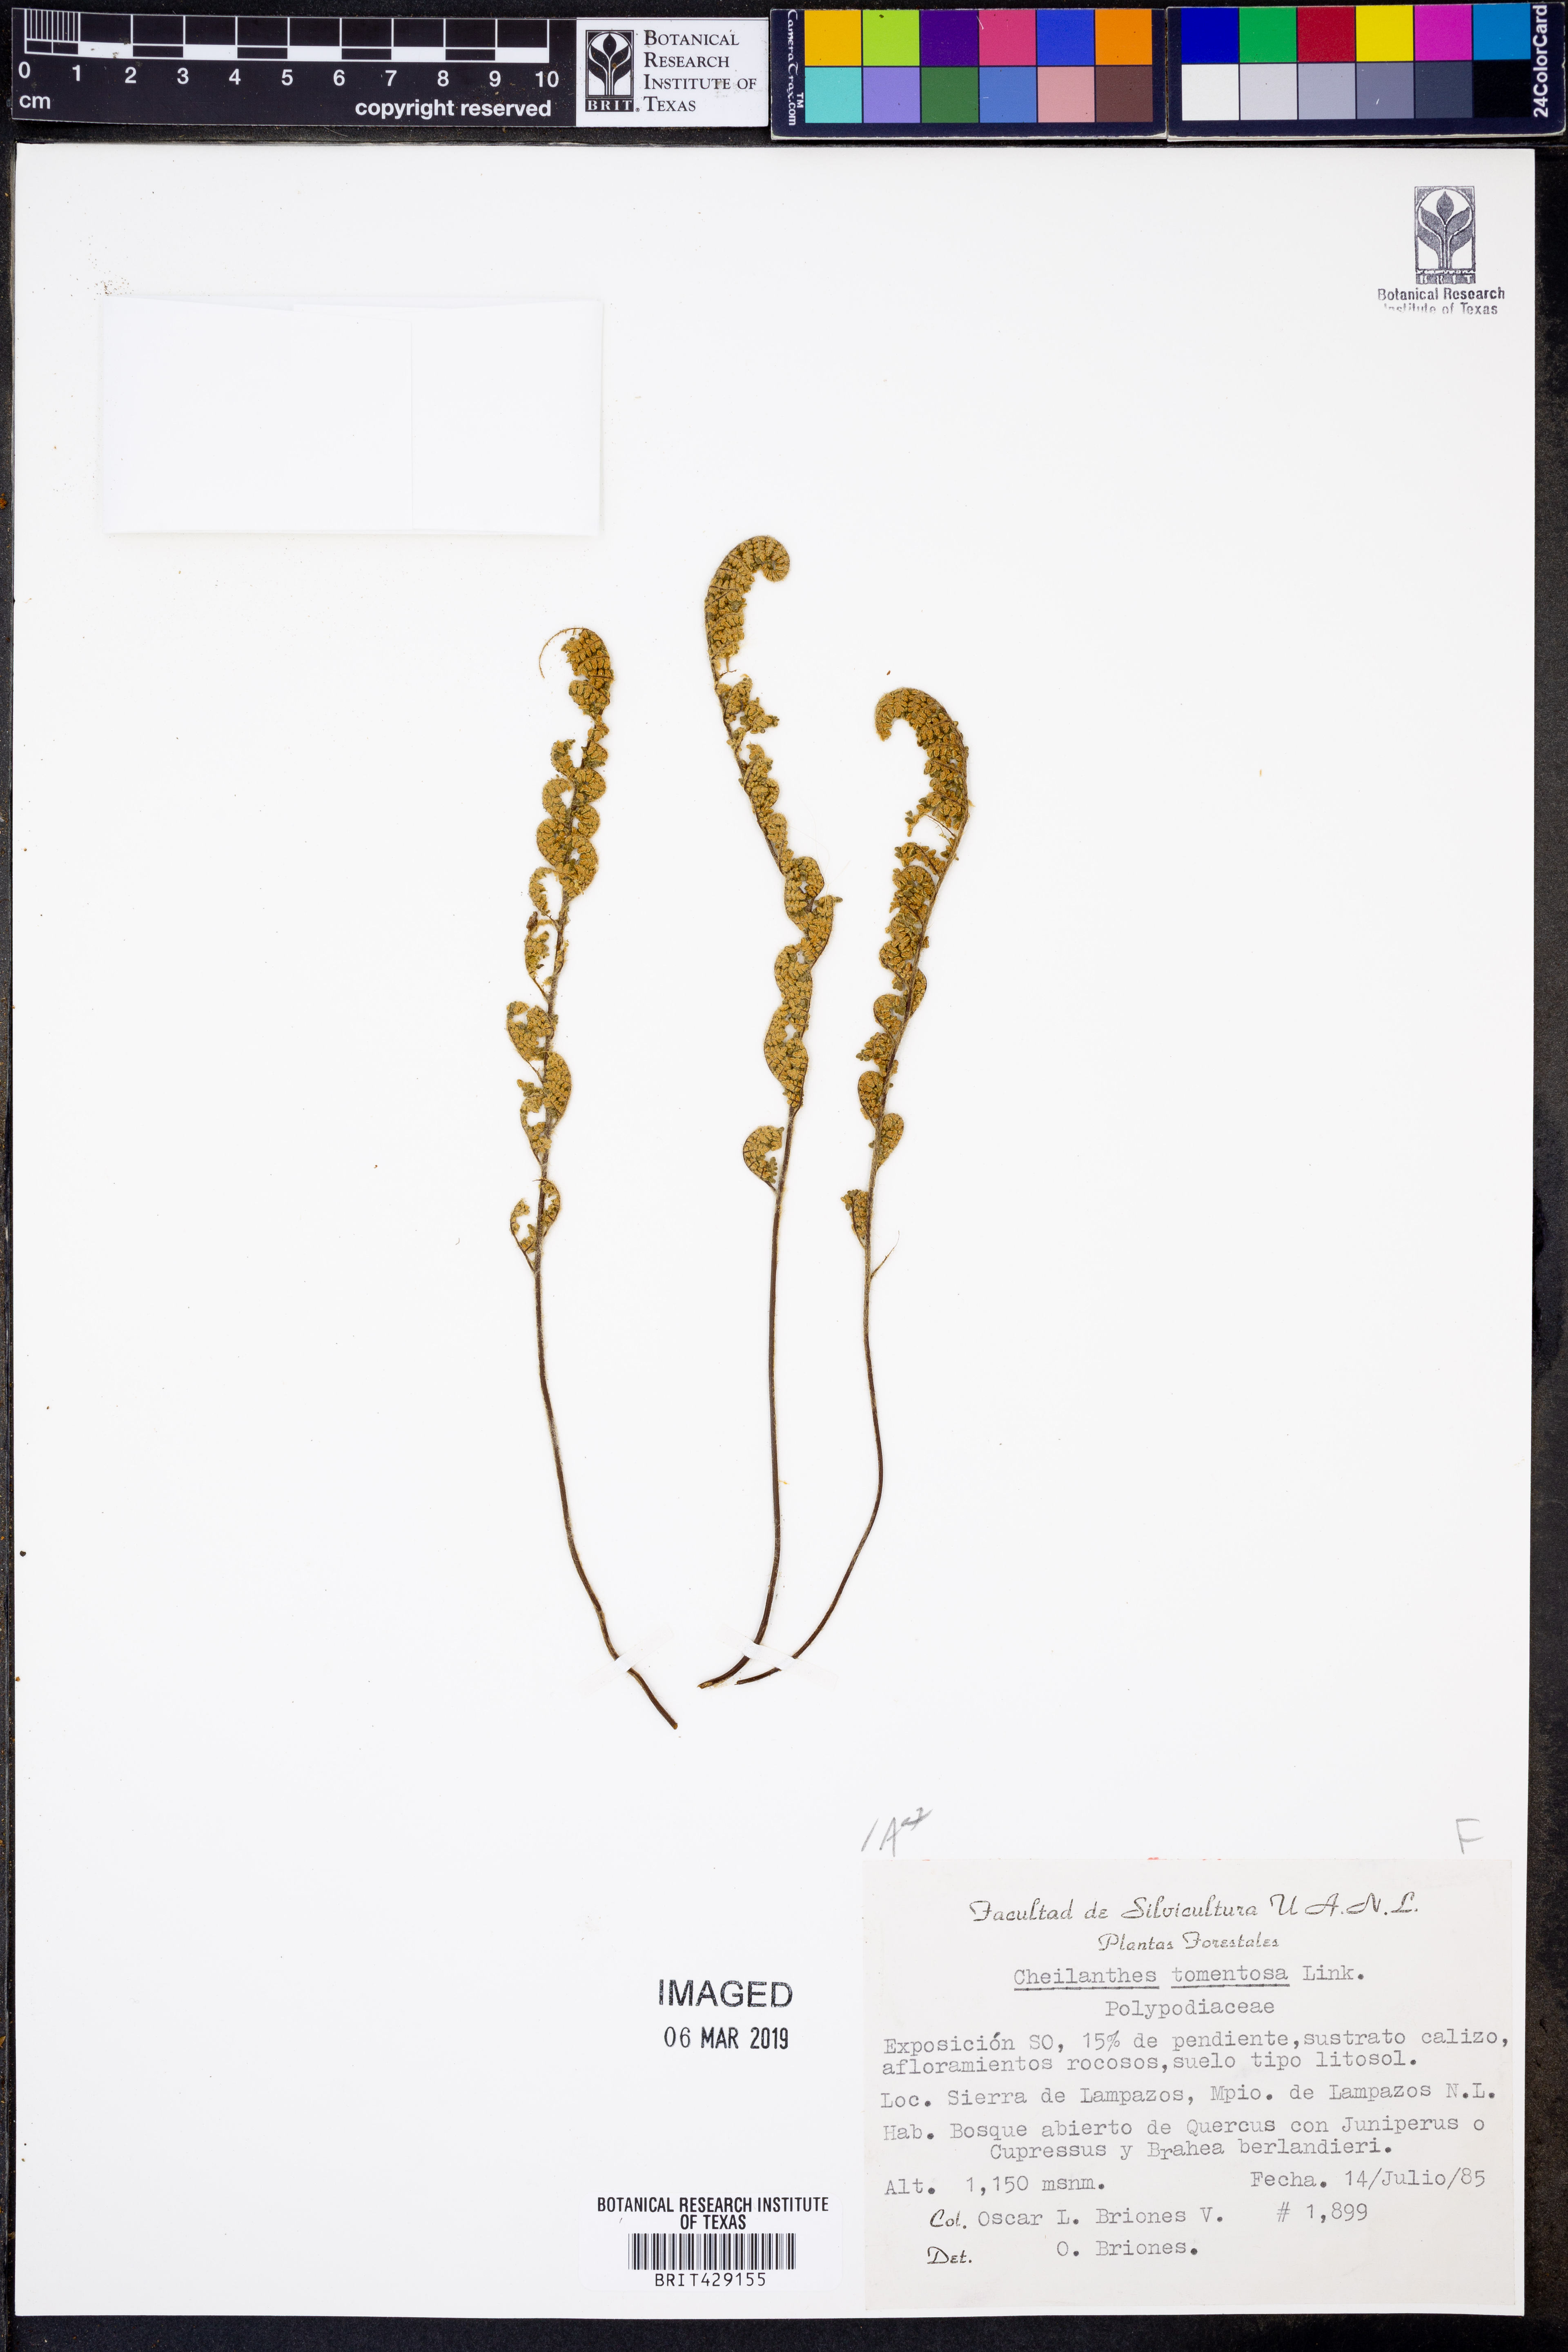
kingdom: Plantae
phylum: Tracheophyta
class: Polypodiopsida
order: Polypodiales
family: Pteridaceae
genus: Myriopteris
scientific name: Myriopteris tomentosa
